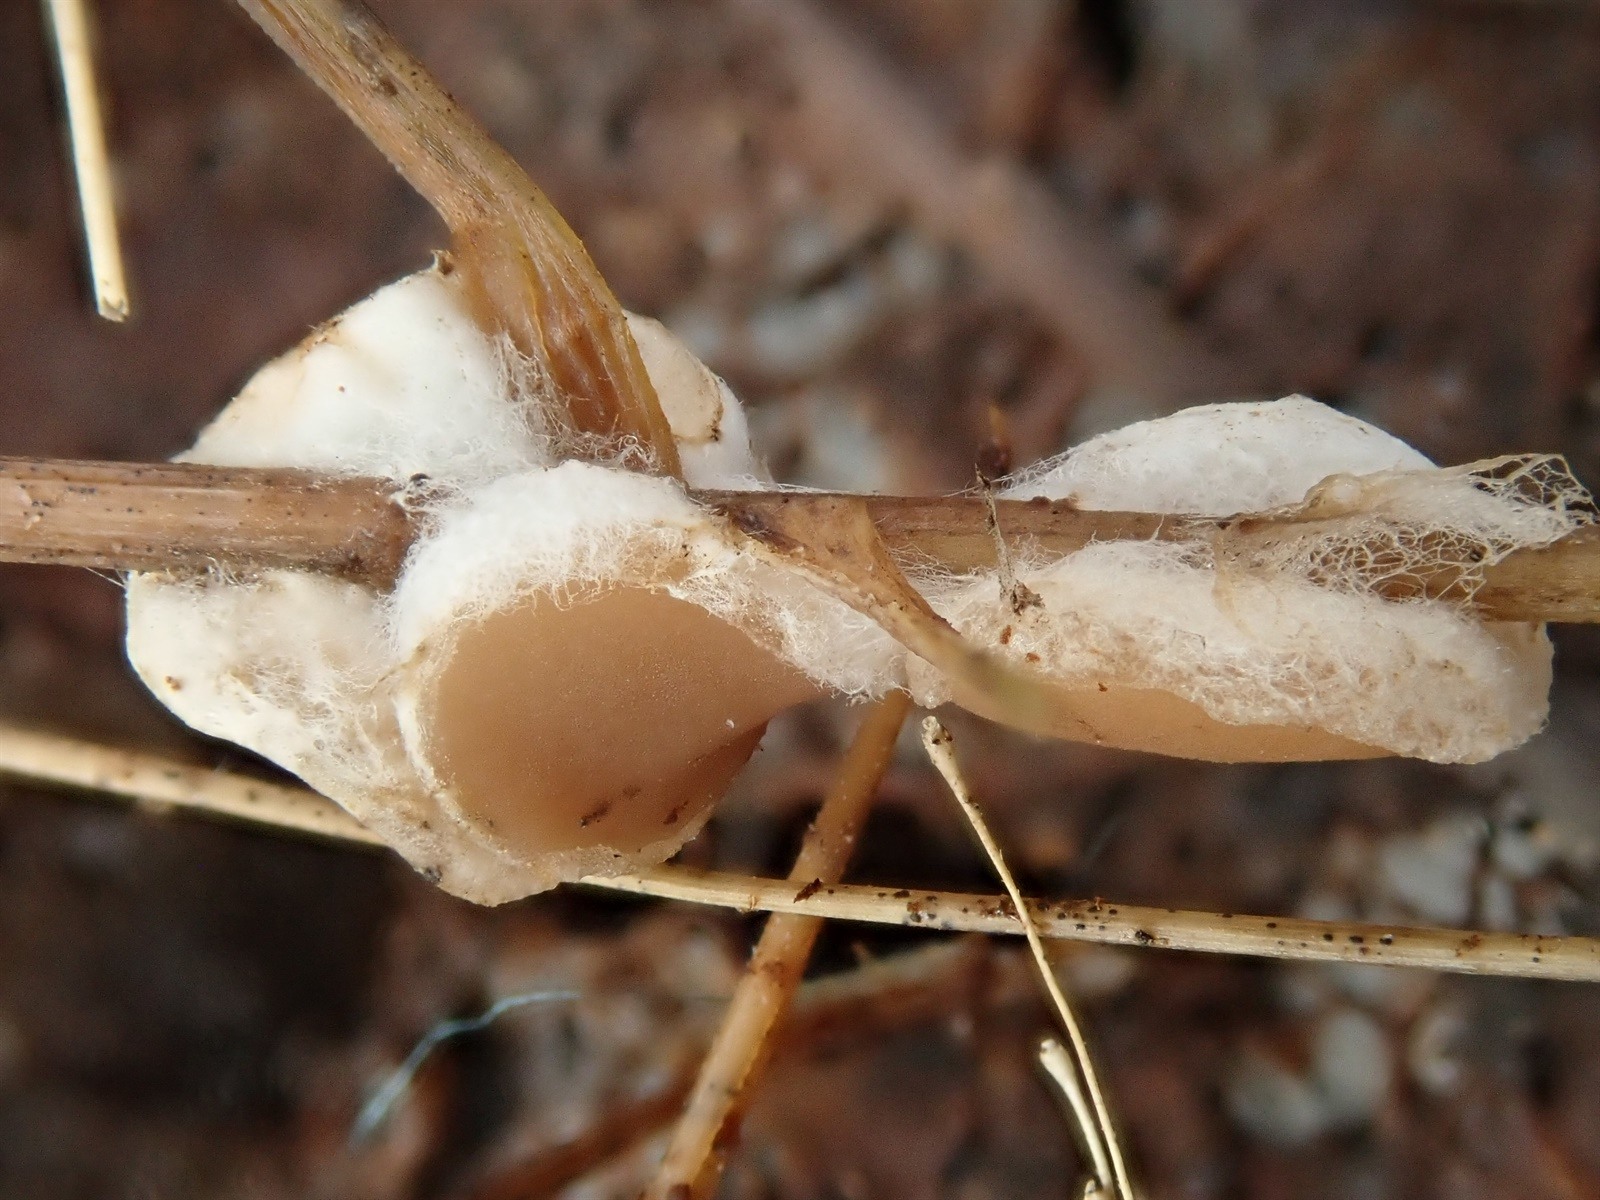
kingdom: Fungi
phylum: Ascomycota
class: Pezizomycetes
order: Pezizales
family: Pezizaceae
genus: Peziza
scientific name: Peziza
